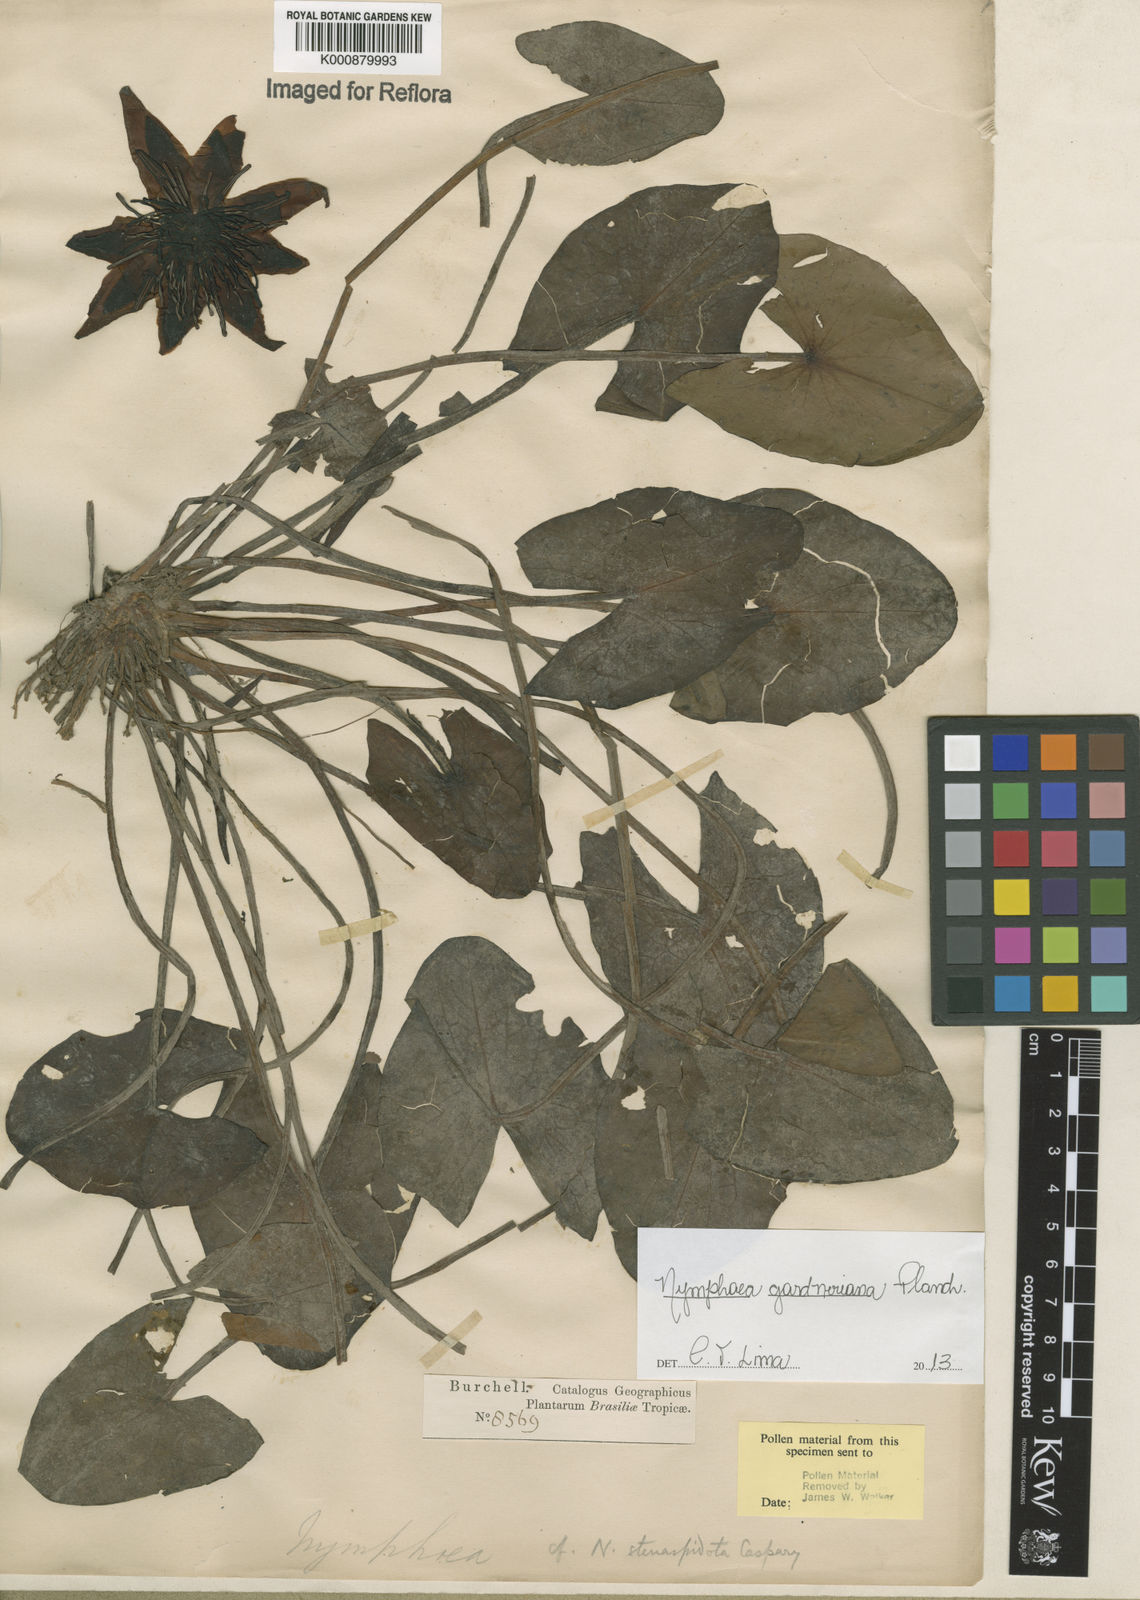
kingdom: Plantae
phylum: Tracheophyta
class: Magnoliopsida
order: Nymphaeales
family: Nymphaeaceae
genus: Nymphaea
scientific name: Nymphaea gardneriana
